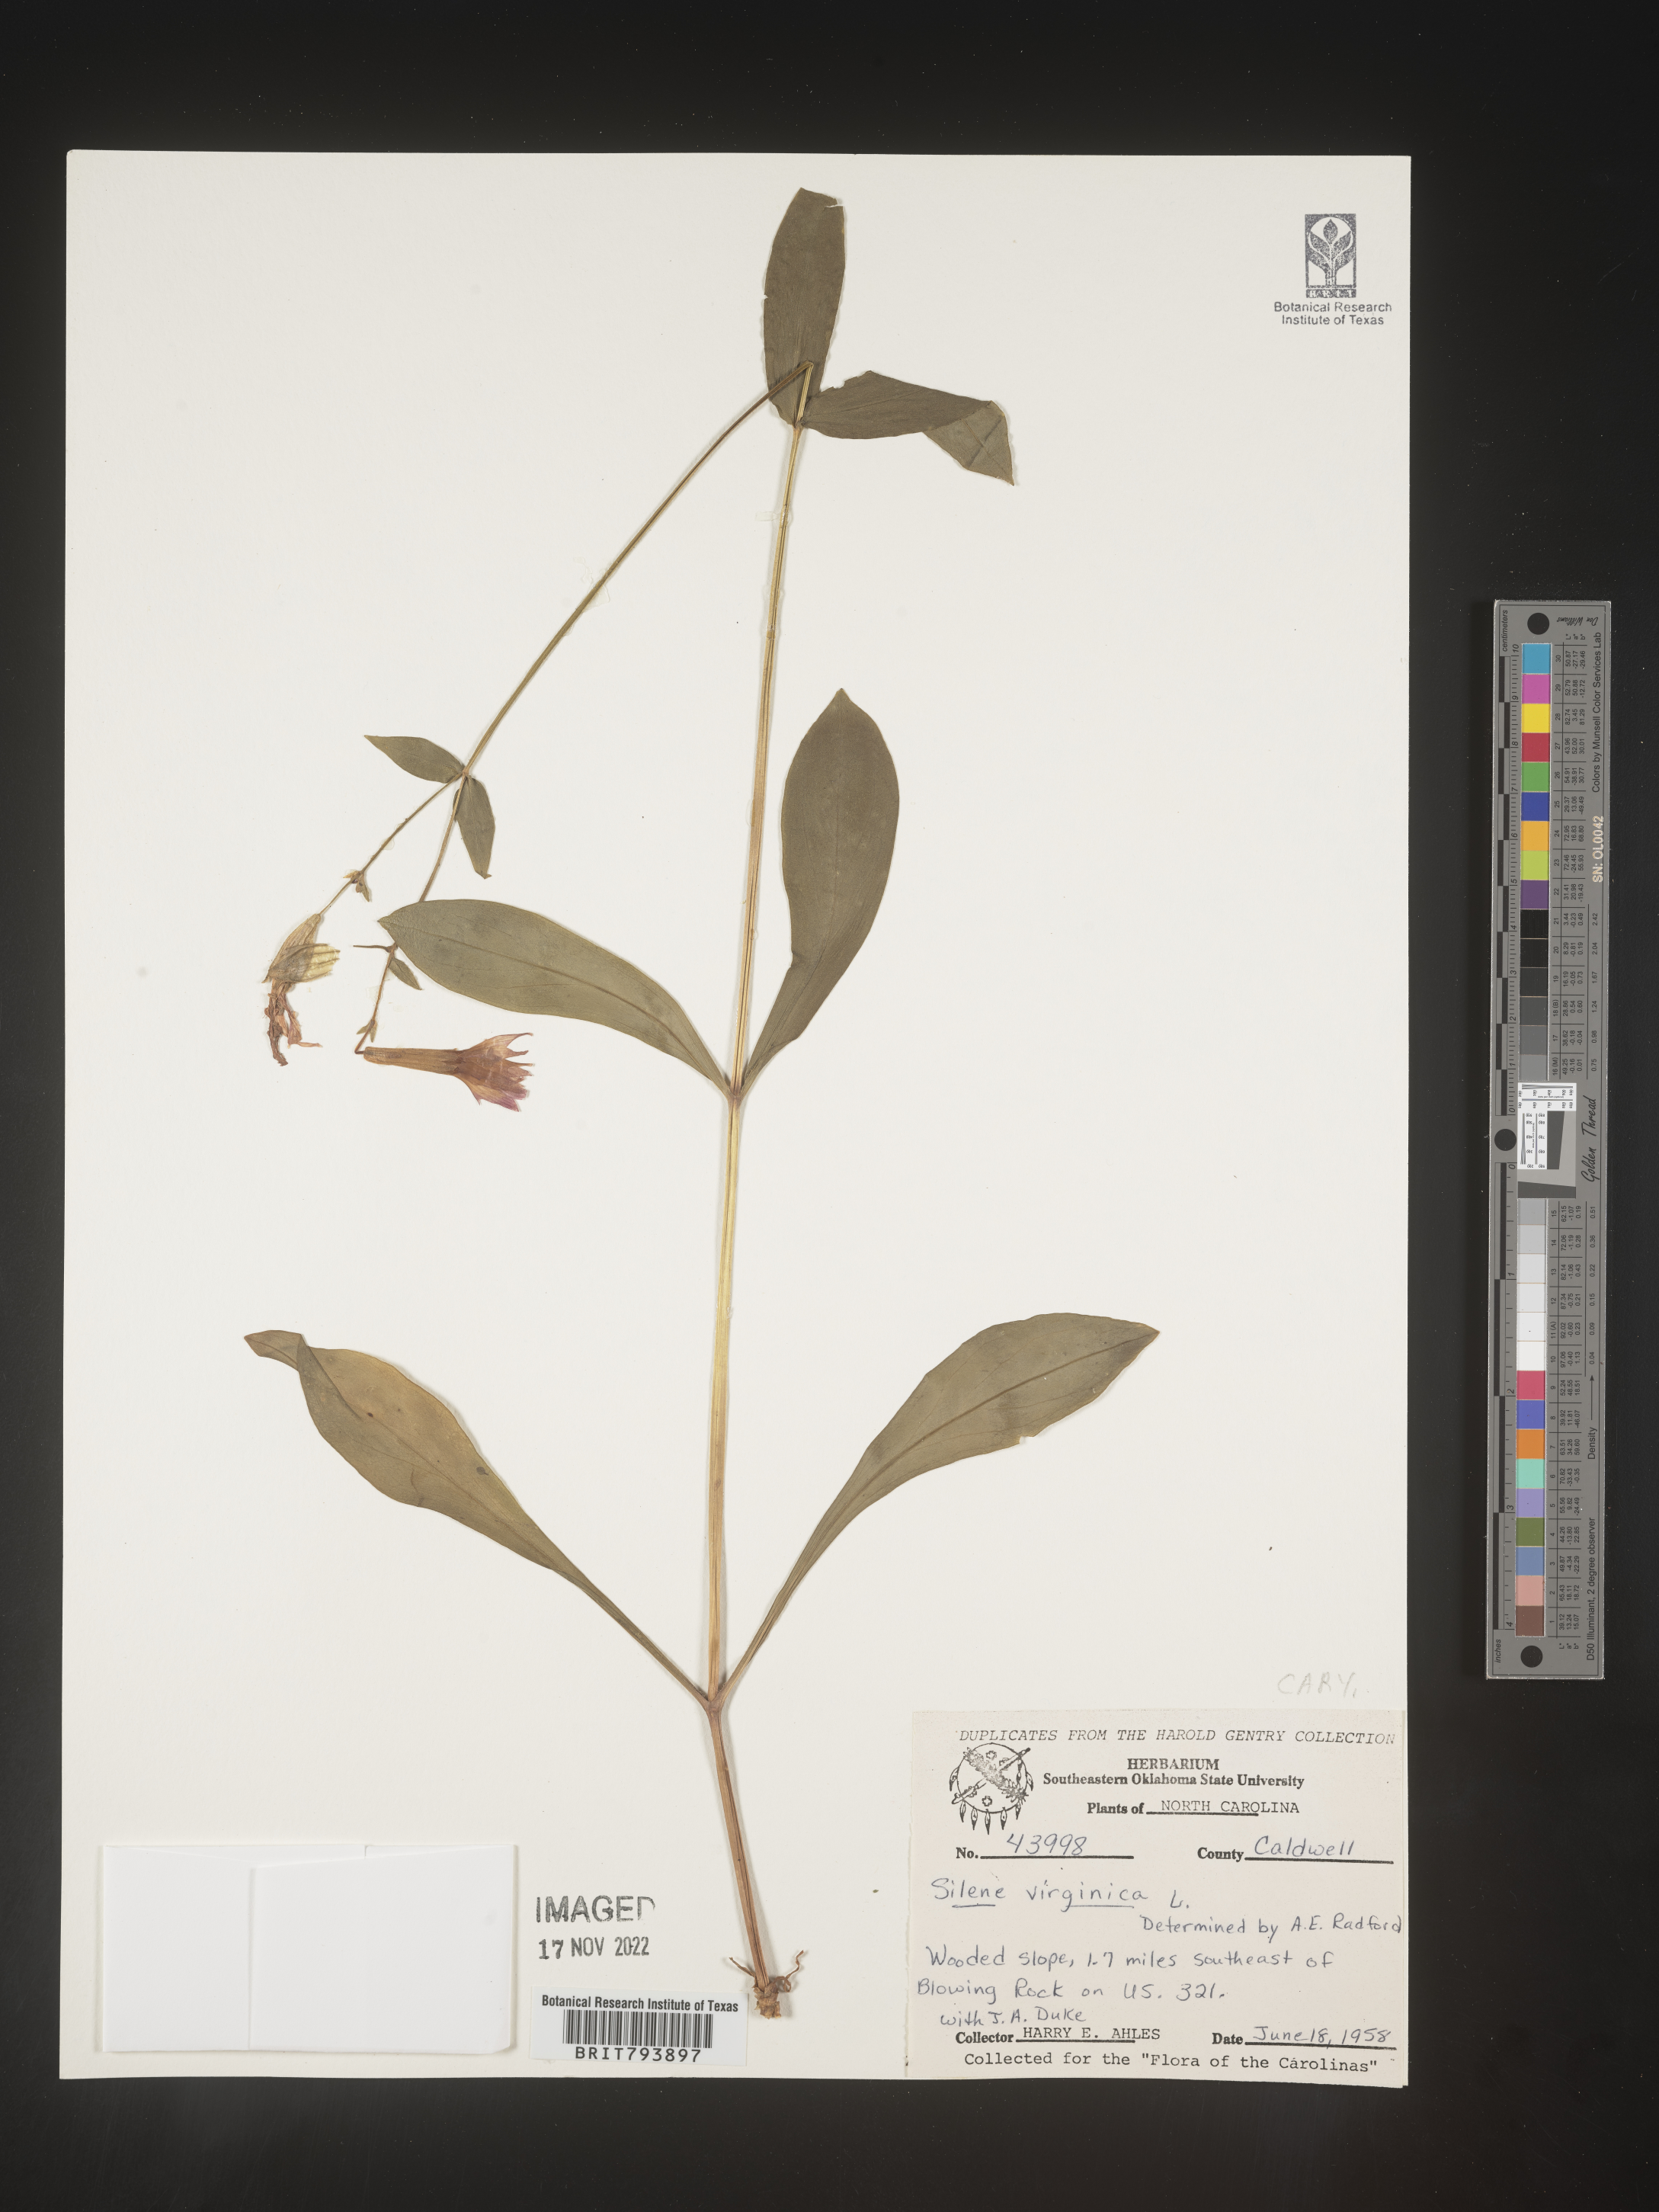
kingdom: Plantae
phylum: Tracheophyta
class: Magnoliopsida
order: Caryophyllales
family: Caryophyllaceae
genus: Silene
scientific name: Silene virginica
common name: Fire-pink
